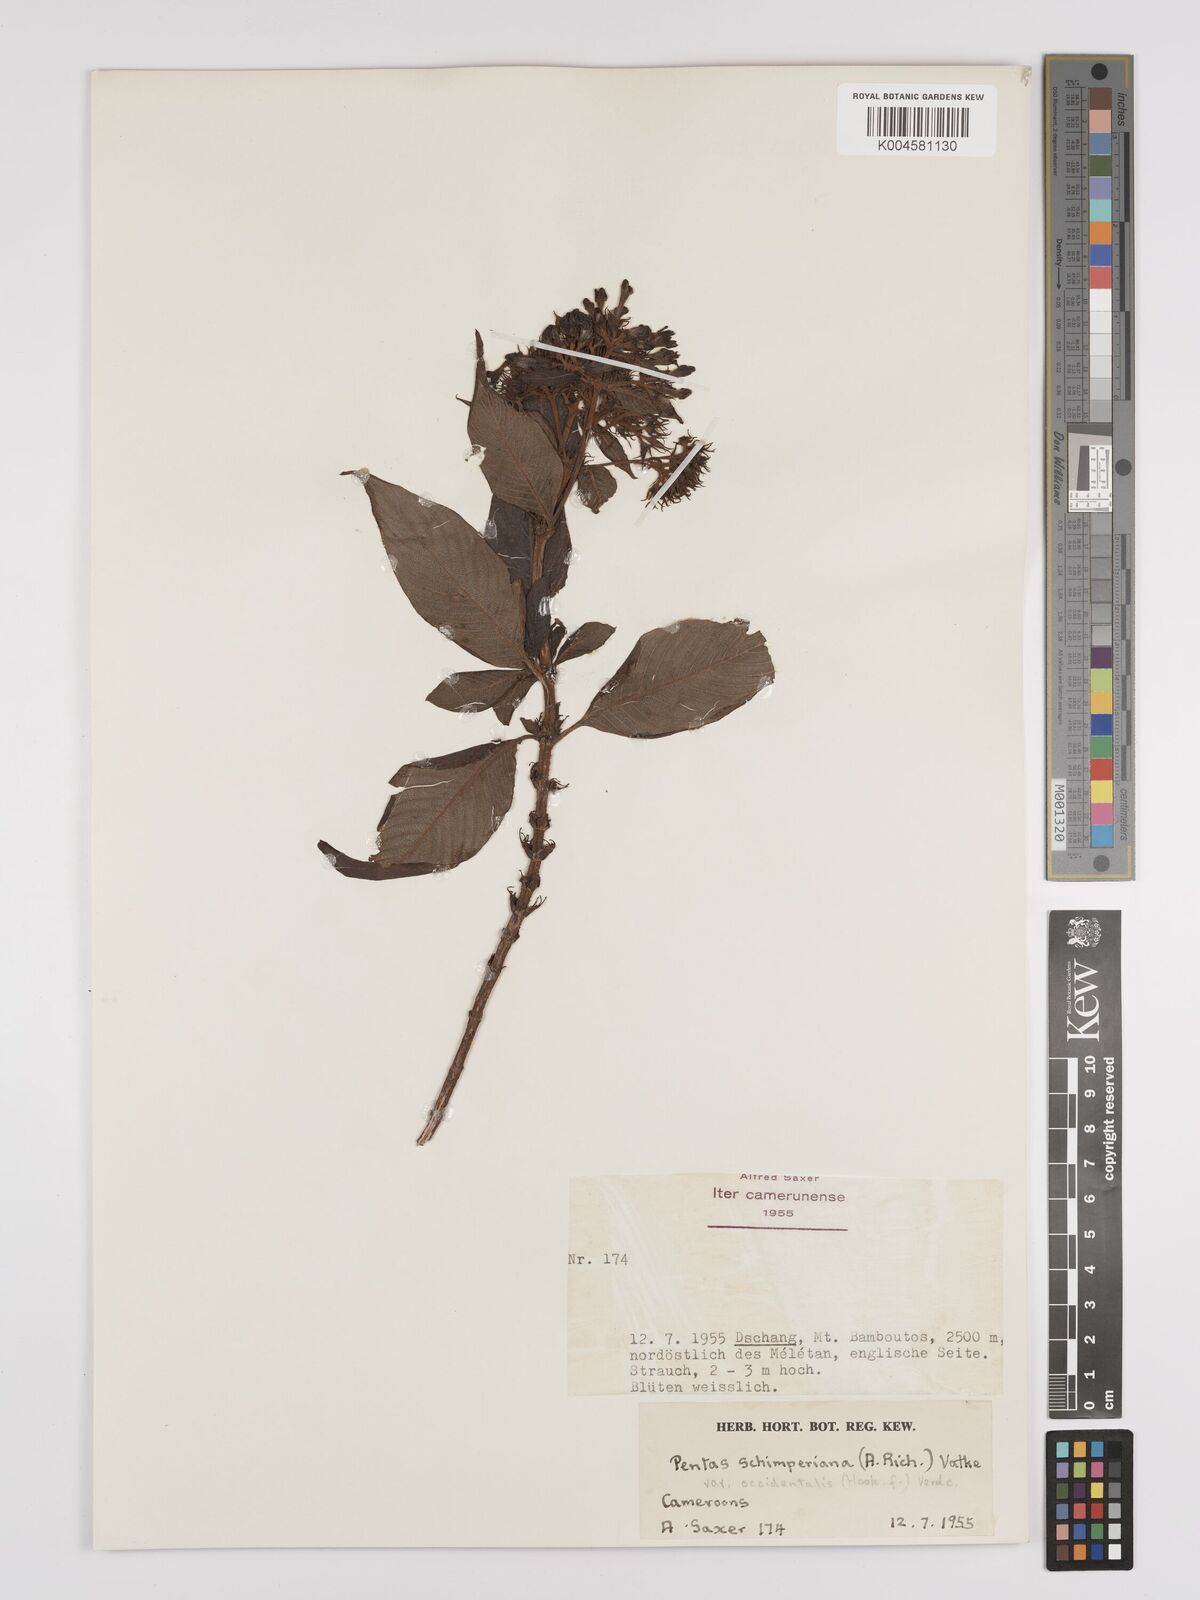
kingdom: Plantae
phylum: Tracheophyta
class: Magnoliopsida
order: Gentianales
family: Rubiaceae
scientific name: Rubiaceae
